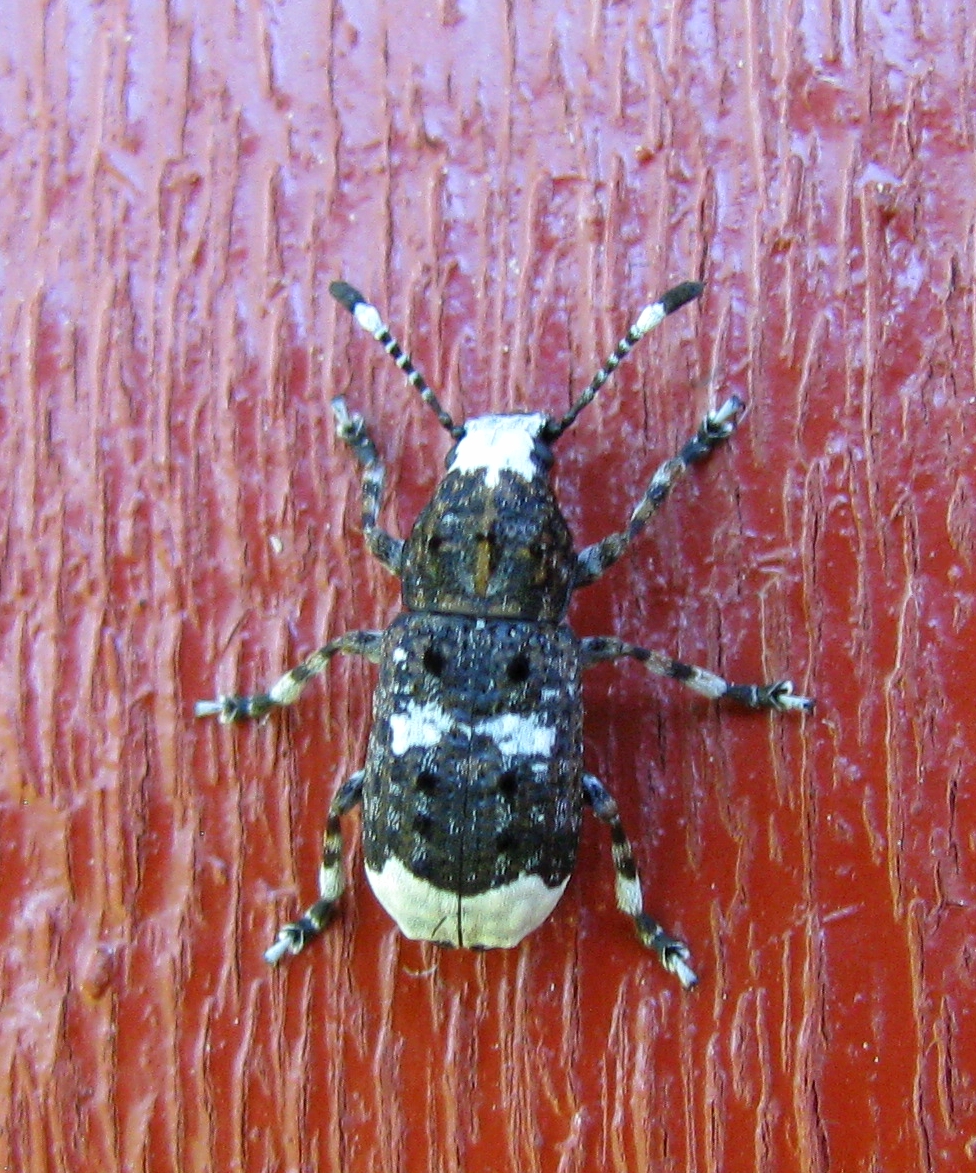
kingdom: Animalia
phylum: Arthropoda
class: Insecta
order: Coleoptera
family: Anthribidae
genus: Platystomos
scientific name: Platystomos albinus
